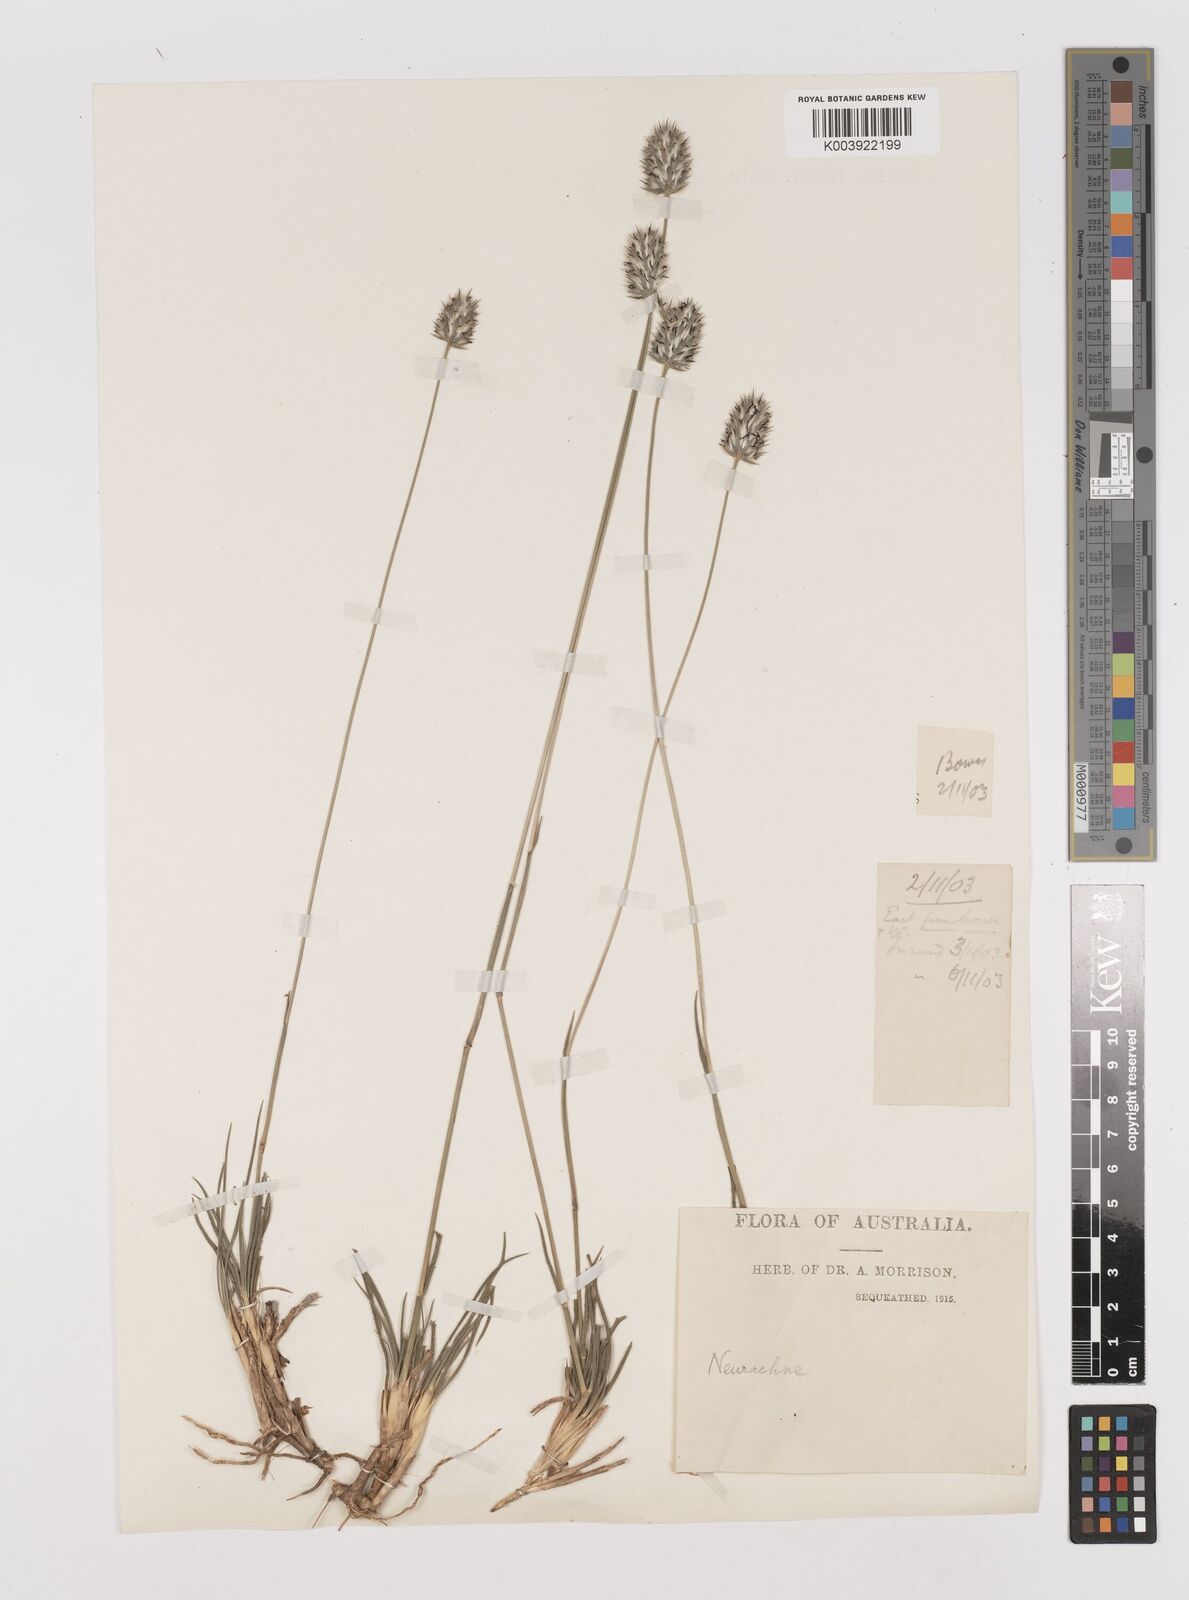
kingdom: Plantae
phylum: Tracheophyta
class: Liliopsida
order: Poales
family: Poaceae
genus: Neurachne
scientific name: Neurachne alopecuroidea
